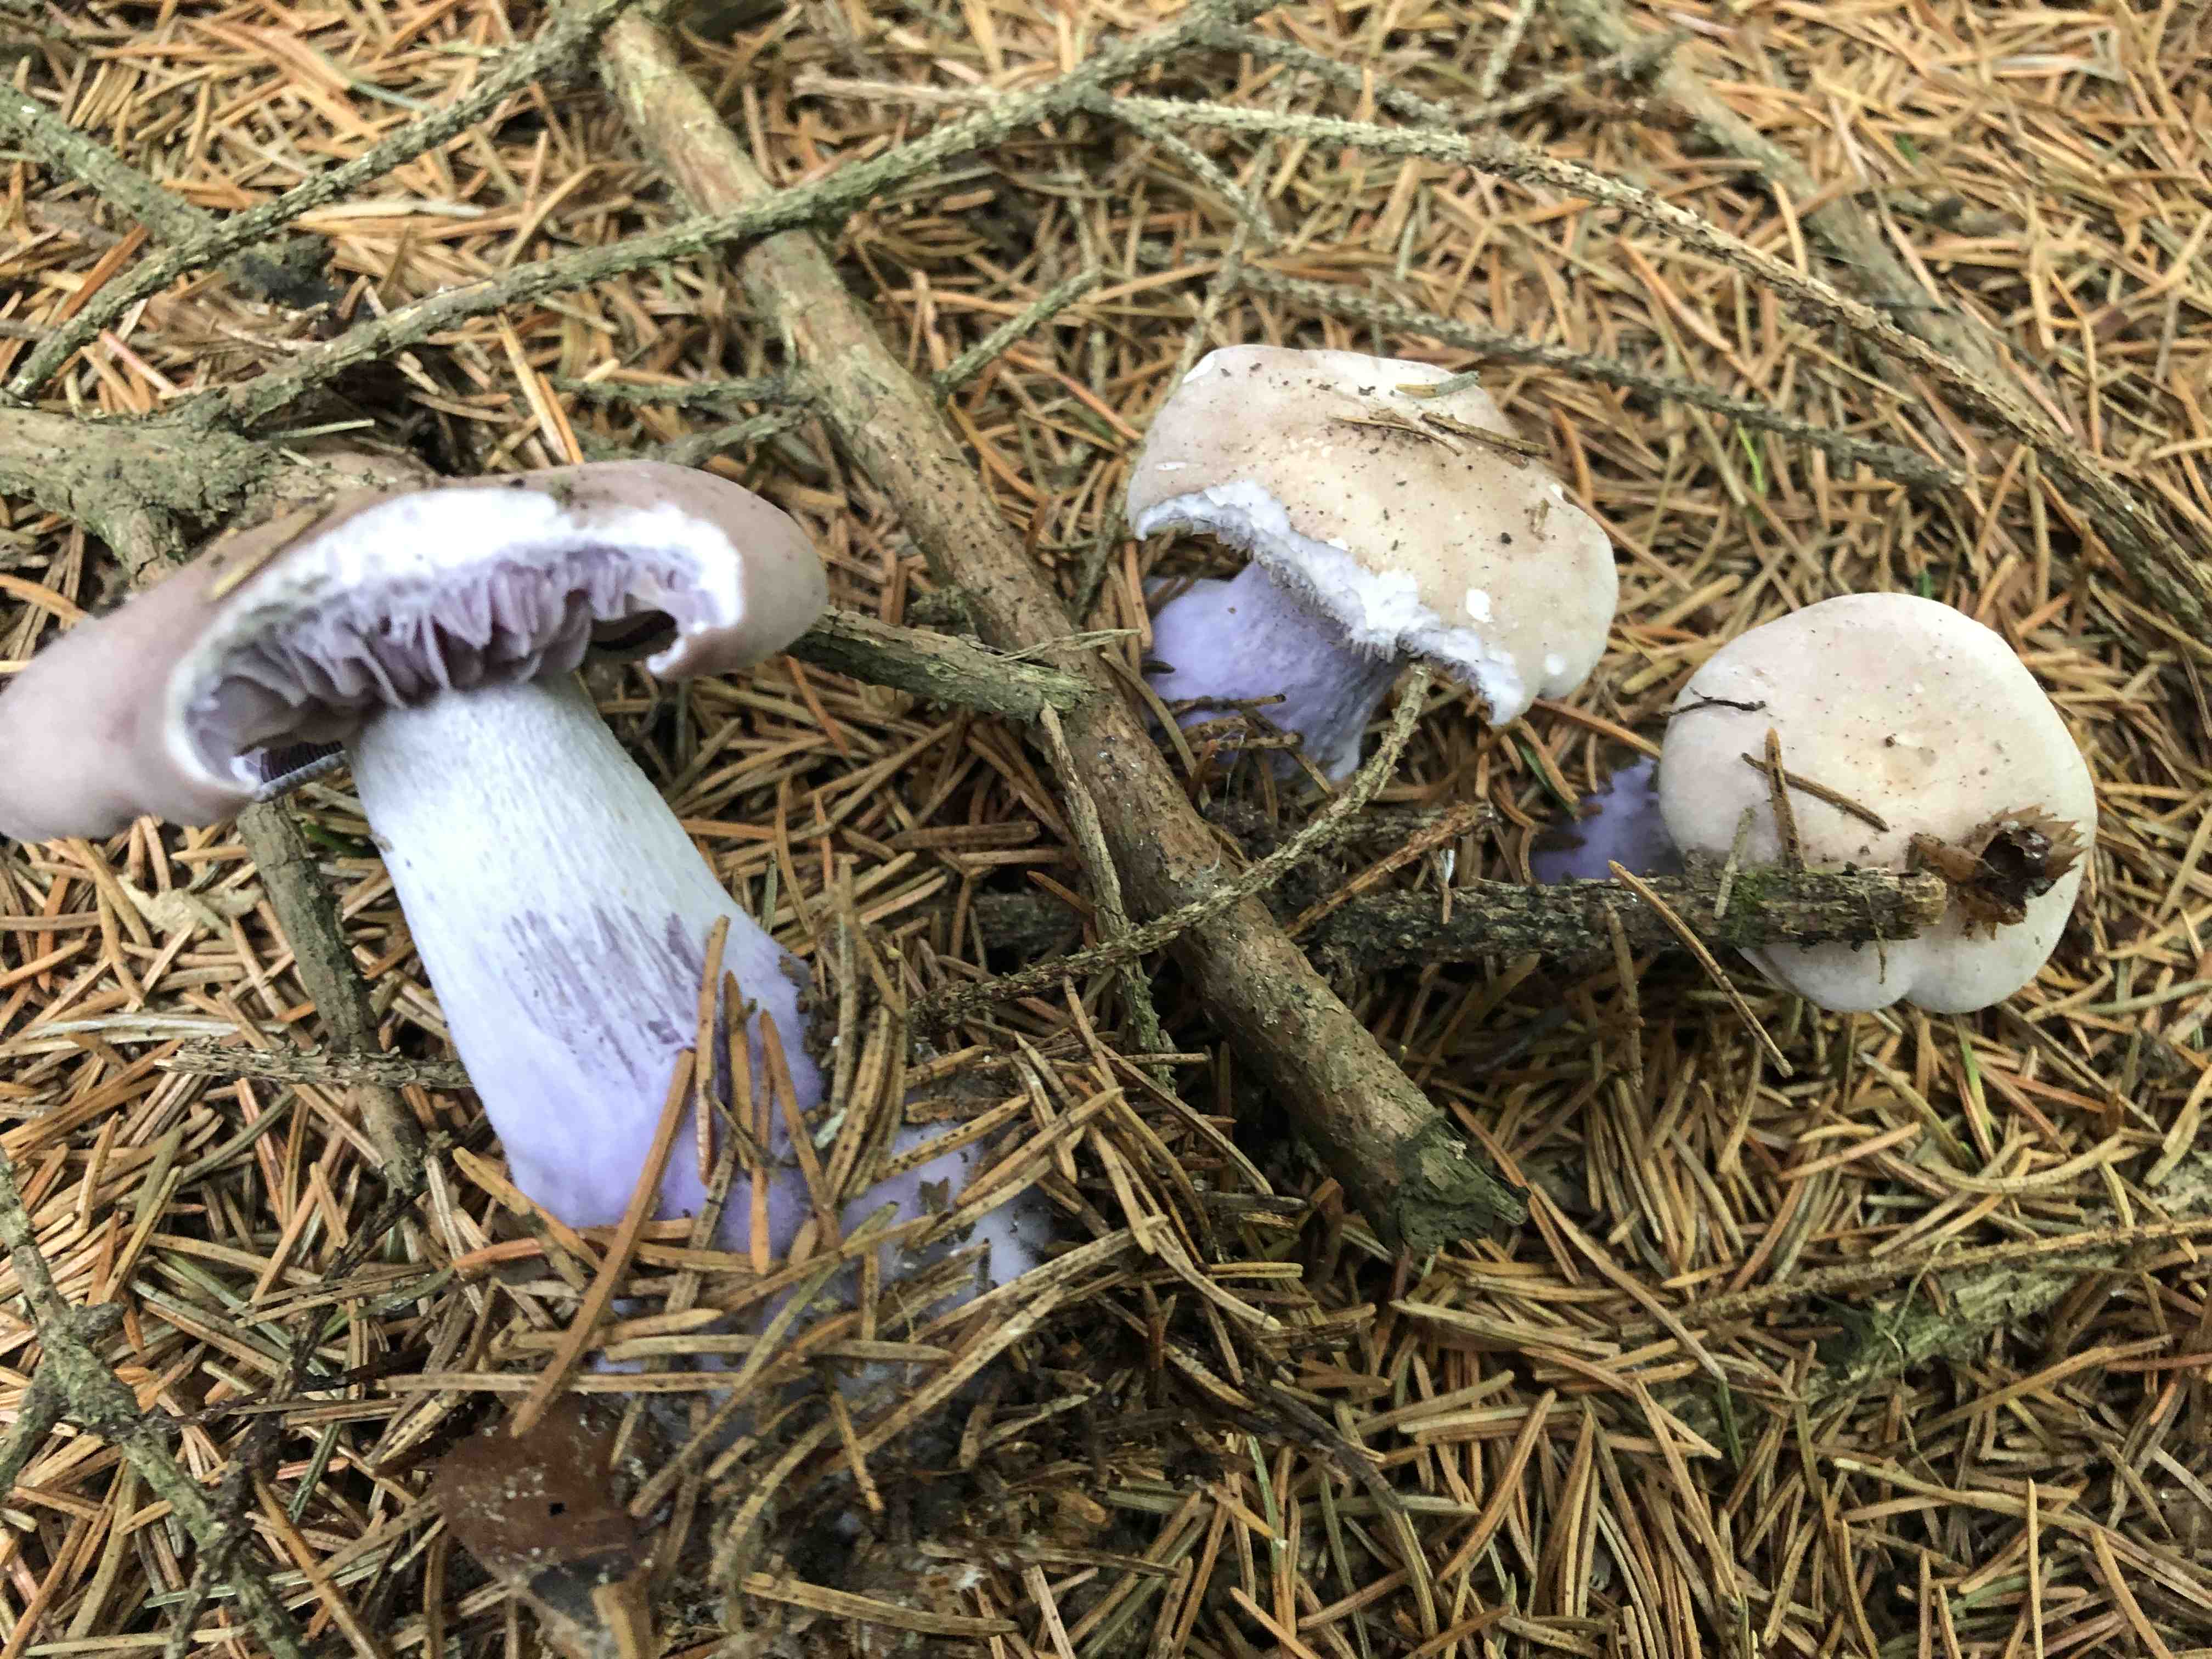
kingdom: Fungi
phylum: Basidiomycota
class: Agaricomycetes
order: Agaricales
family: Tricholomataceae
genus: Lepista
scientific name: Lepista nuda
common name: violet hekseringshat
